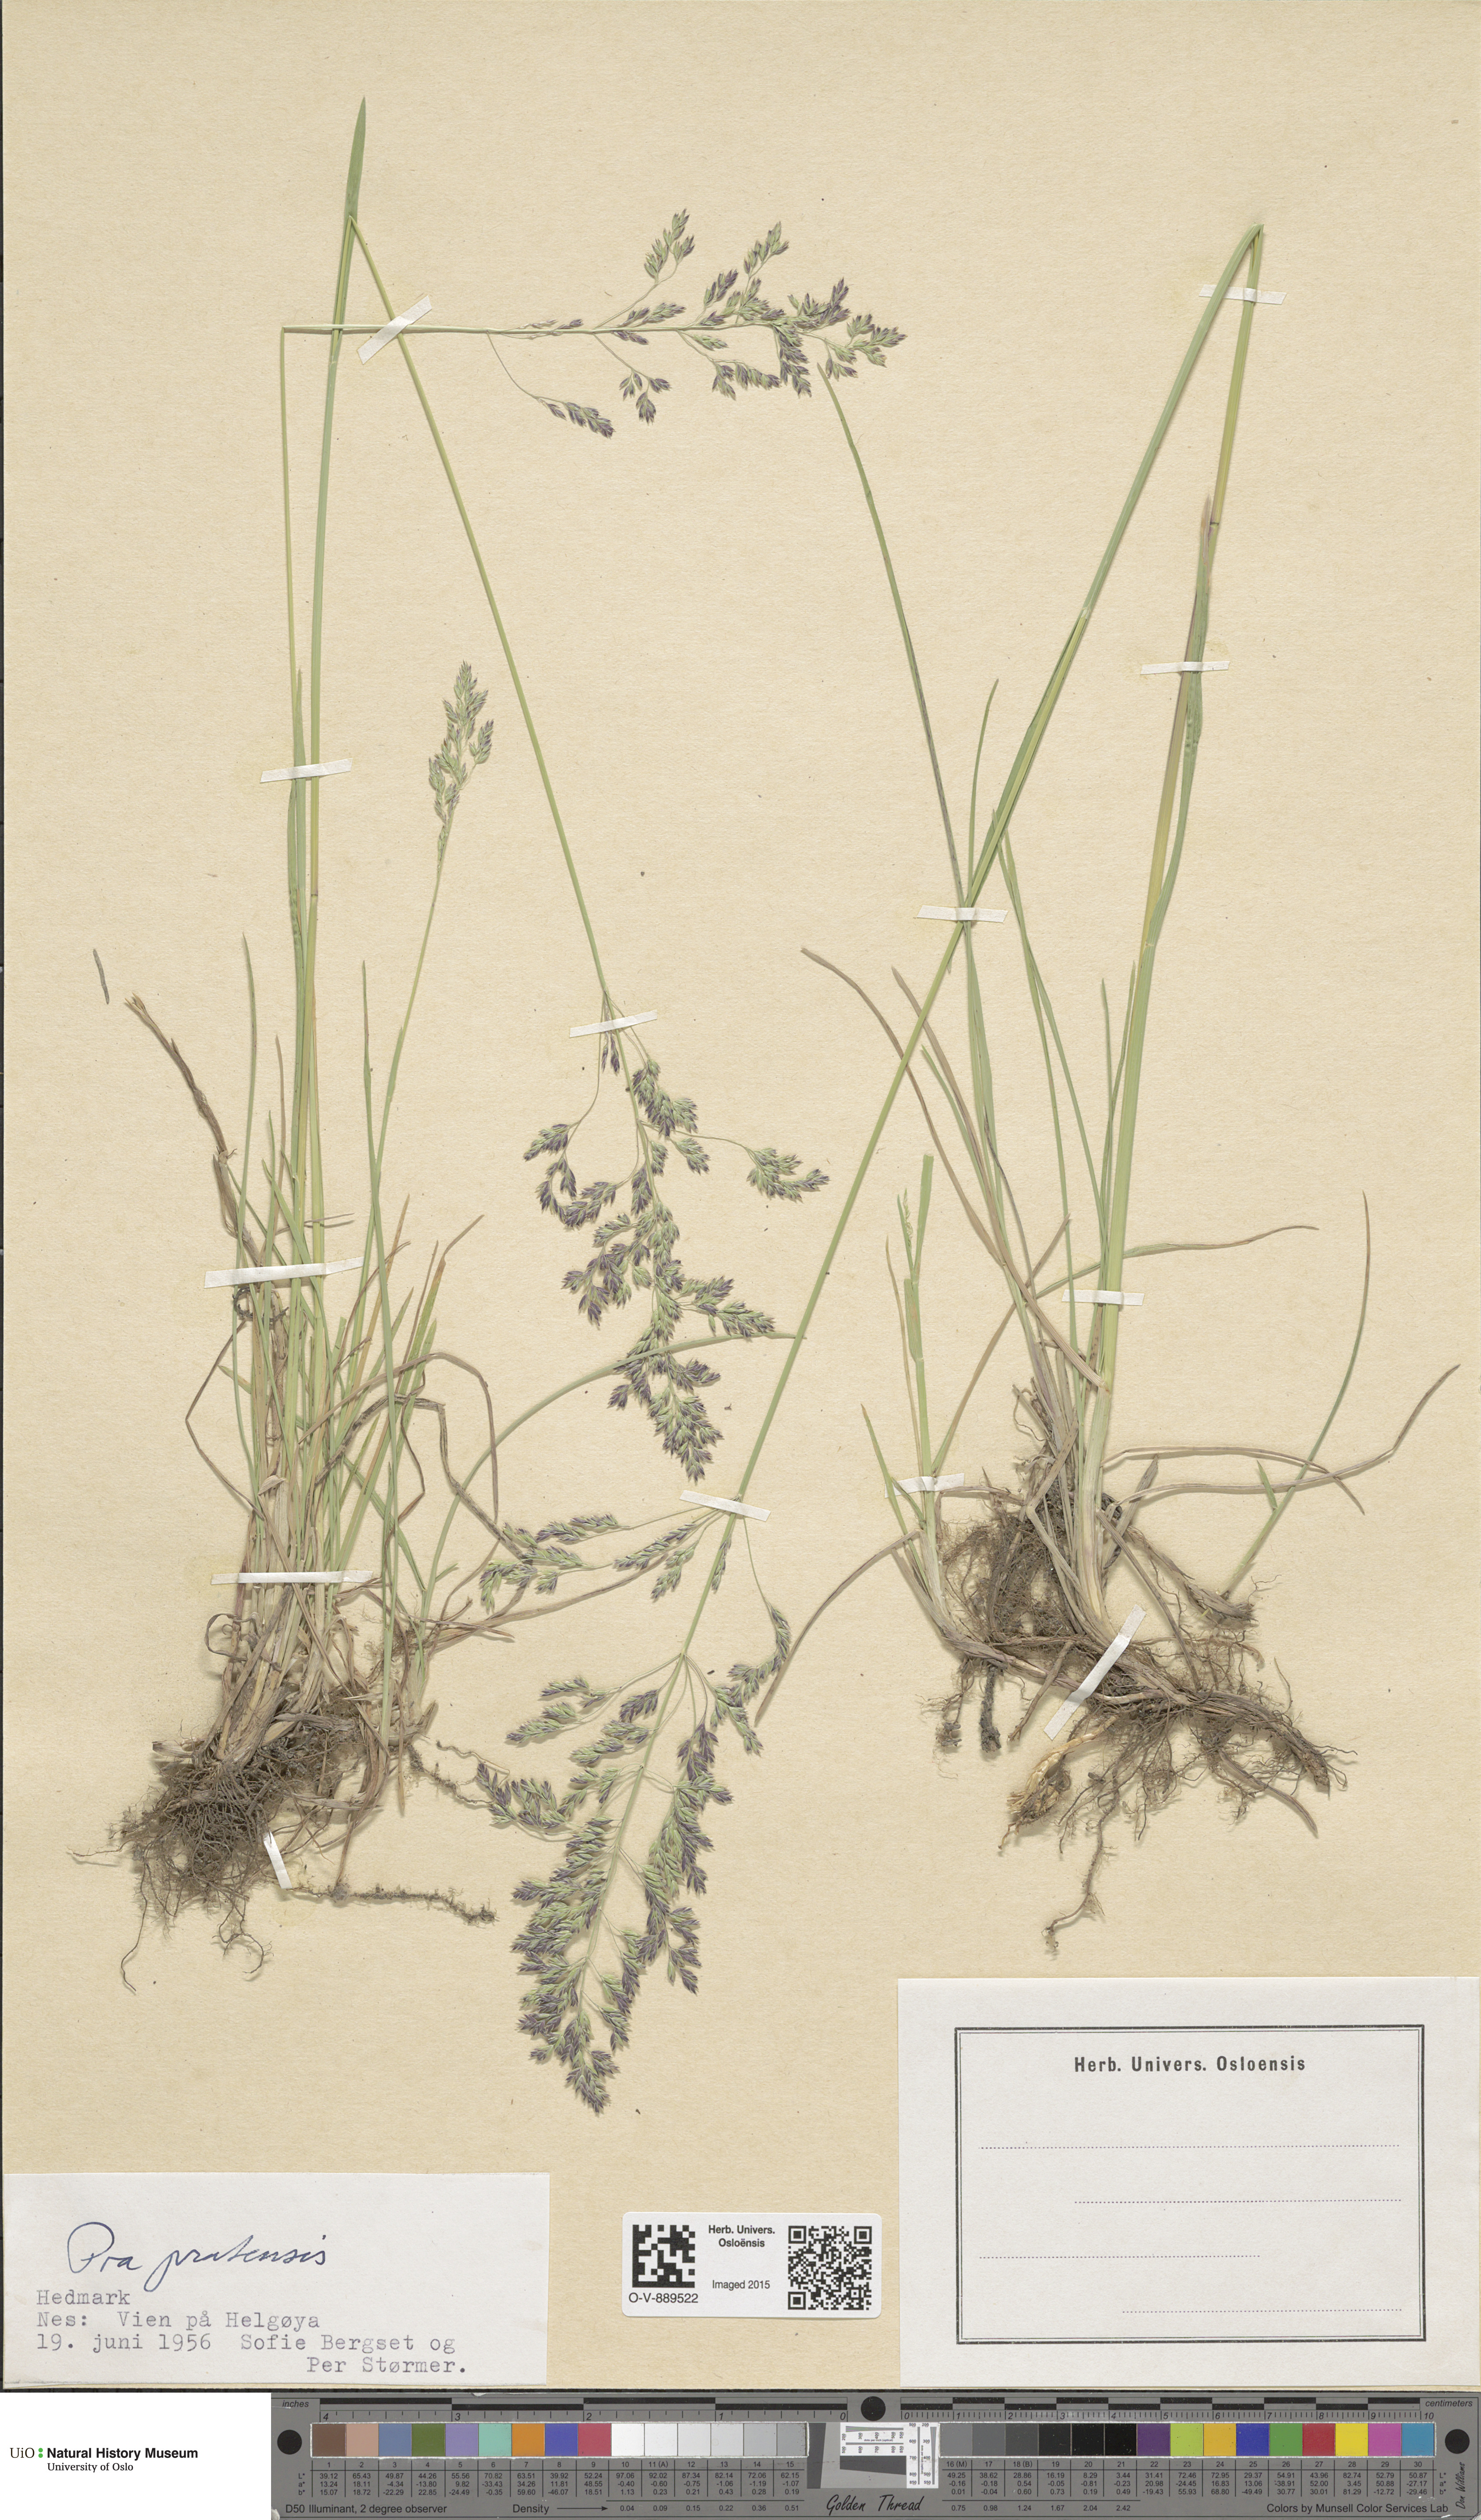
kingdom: Plantae
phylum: Tracheophyta
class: Liliopsida
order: Poales
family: Poaceae
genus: Poa
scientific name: Poa pratensis
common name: Kentucky bluegrass
